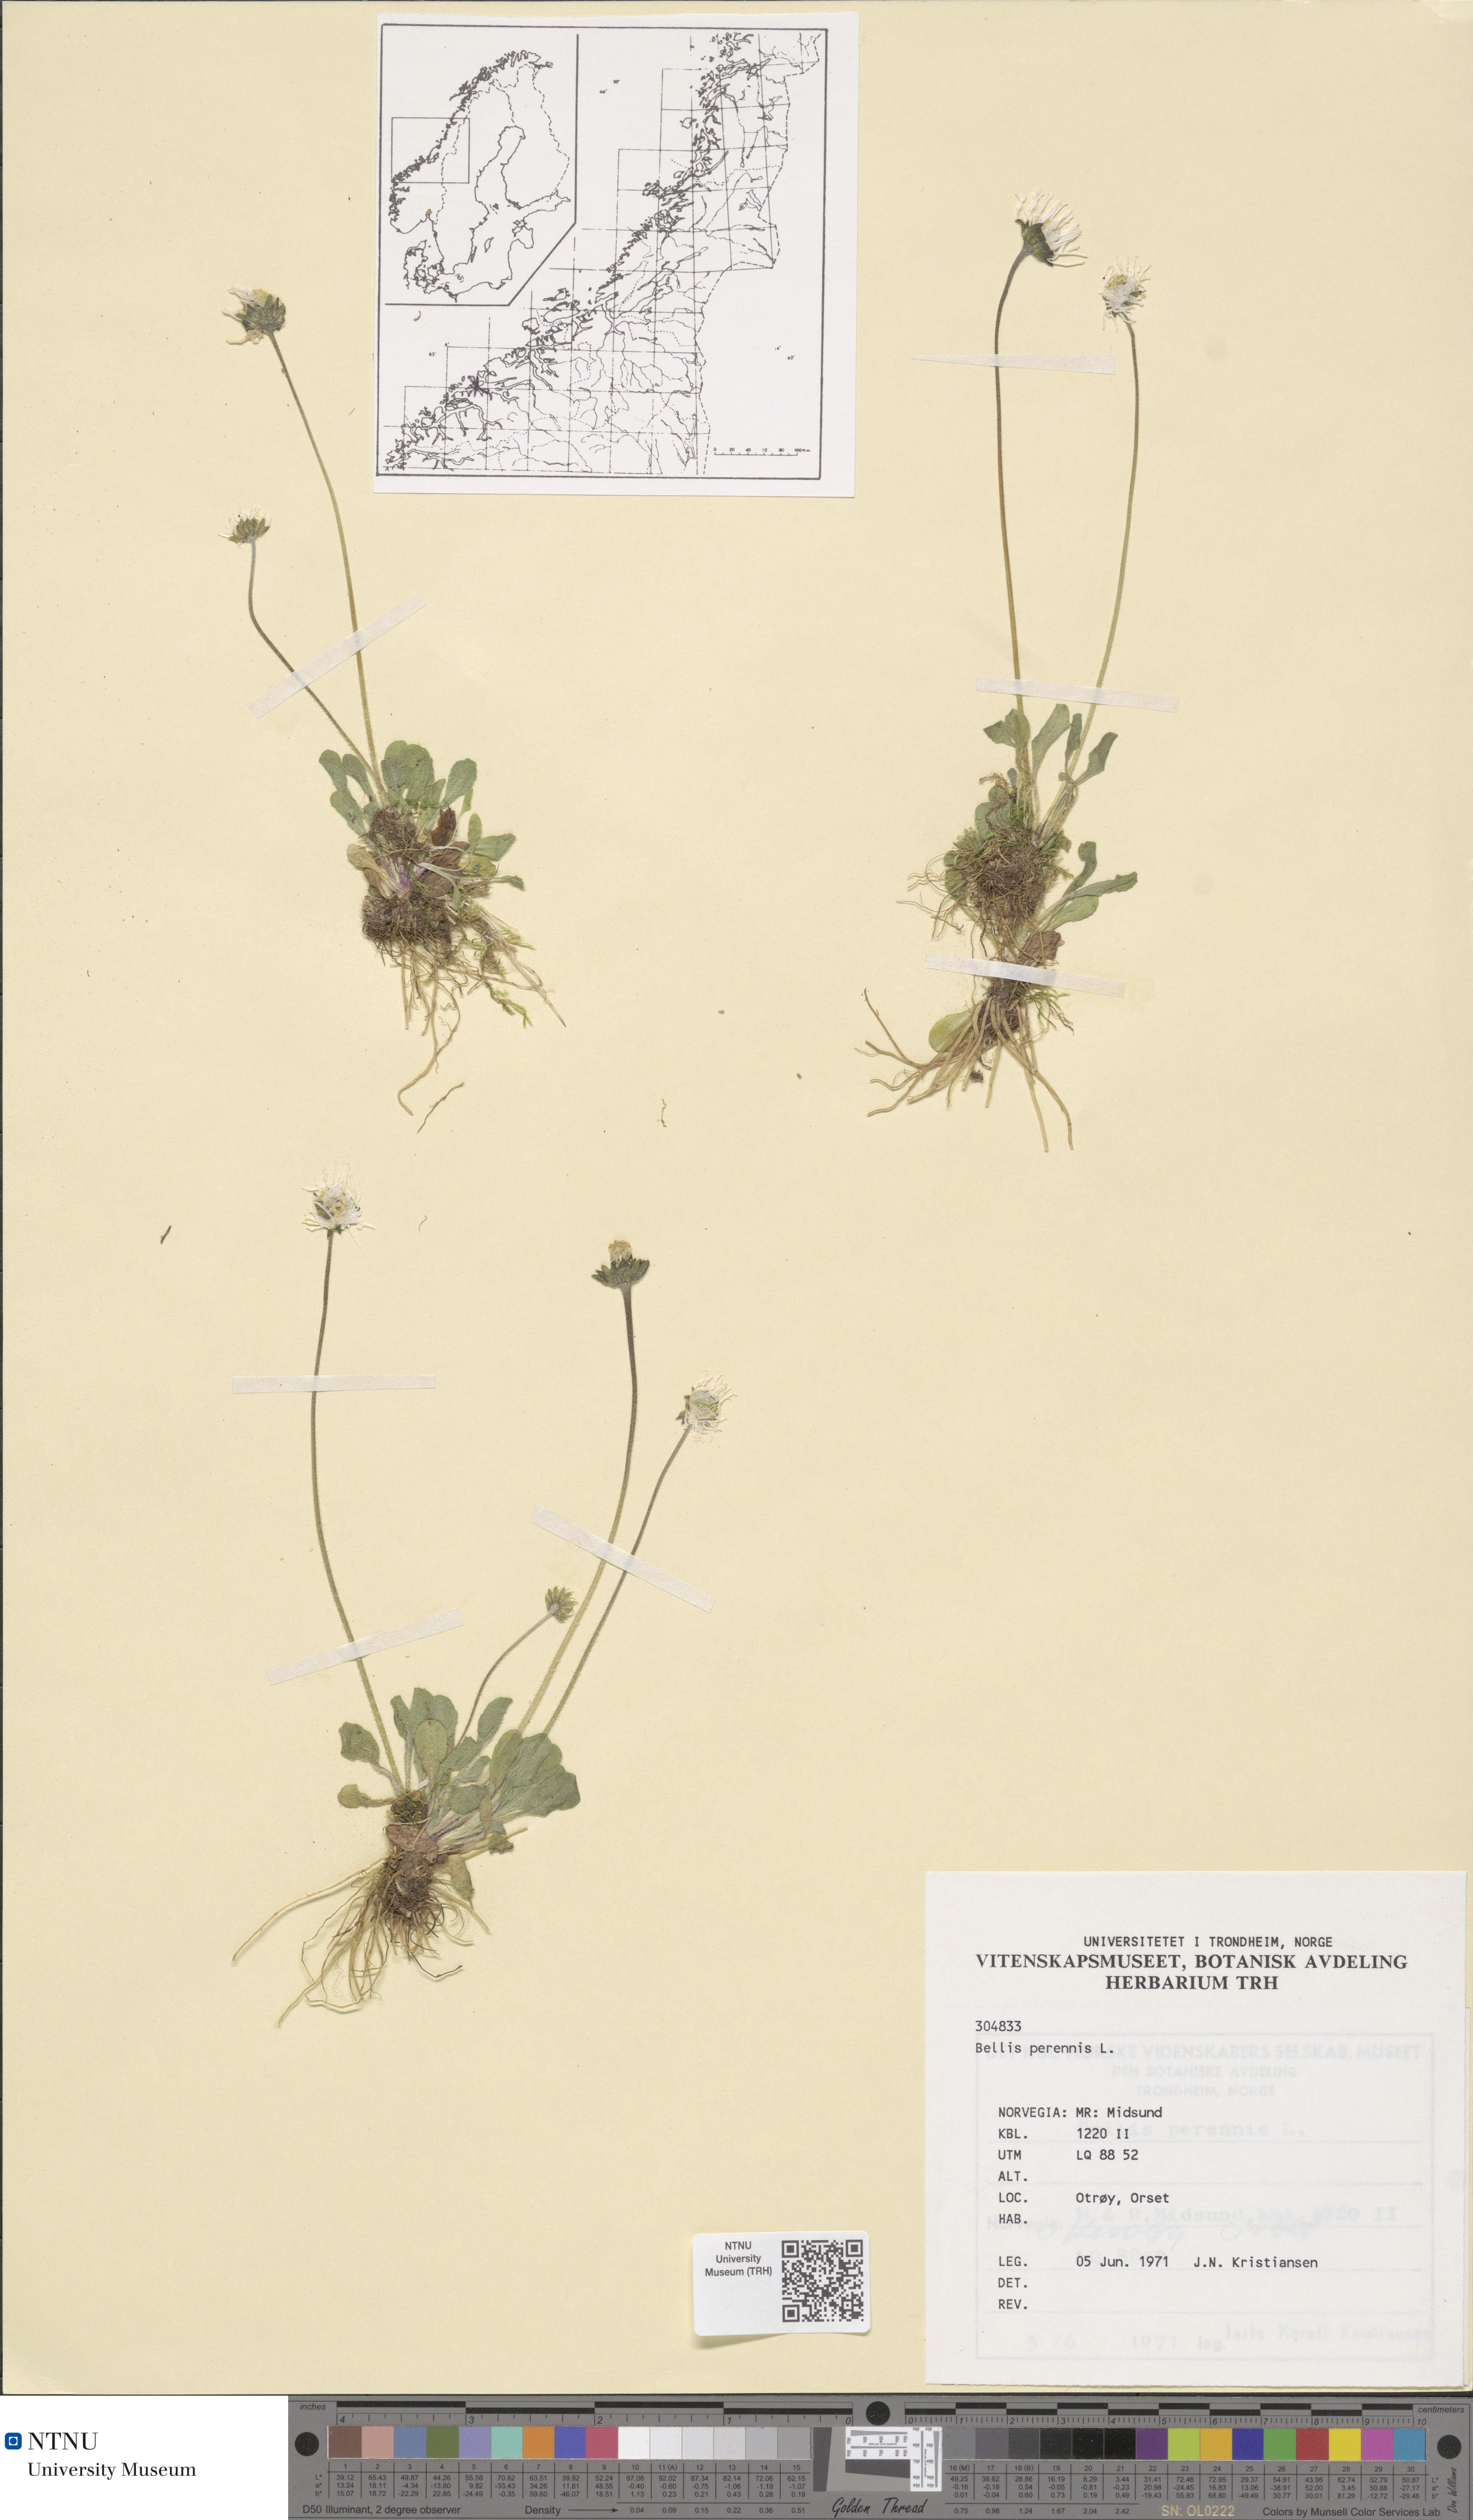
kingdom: Plantae
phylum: Tracheophyta
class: Magnoliopsida
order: Asterales
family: Asteraceae
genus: Bellis
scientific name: Bellis perennis
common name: Lawndaisy
